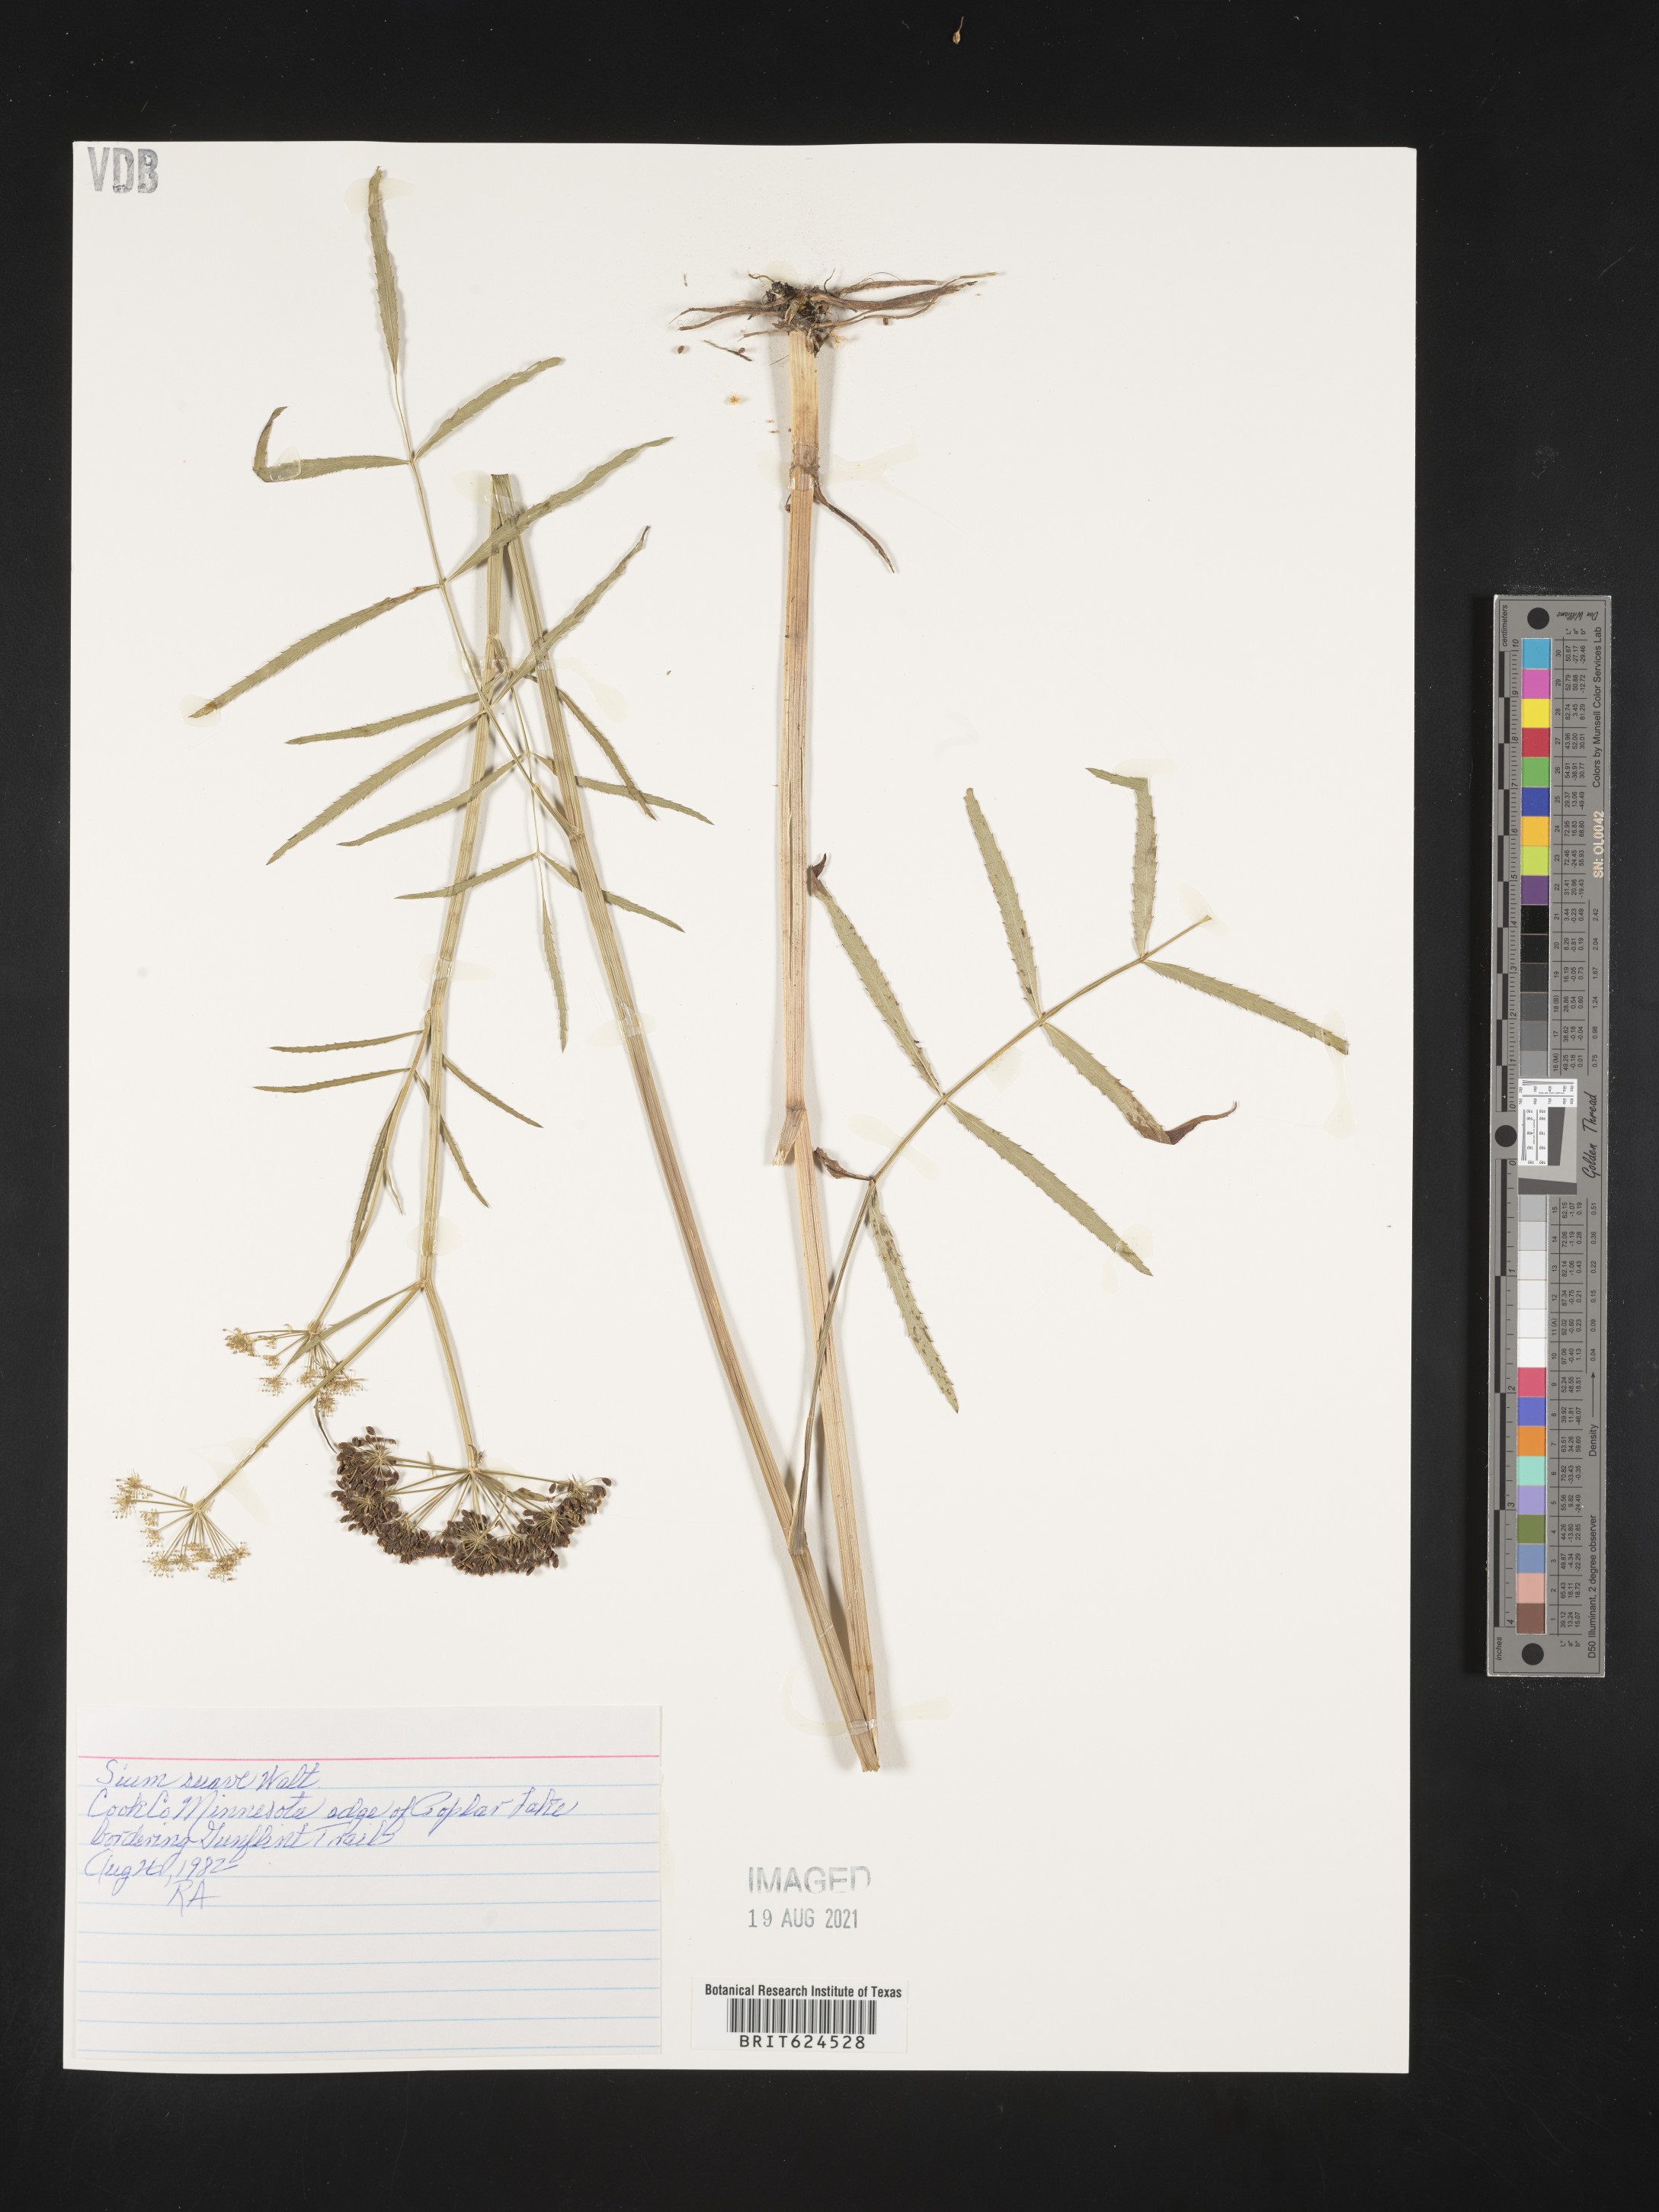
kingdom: Plantae
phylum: Tracheophyta
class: Magnoliopsida
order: Apiales
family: Apiaceae
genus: Sium
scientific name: Sium suave
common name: Hemlock water-parsnip
